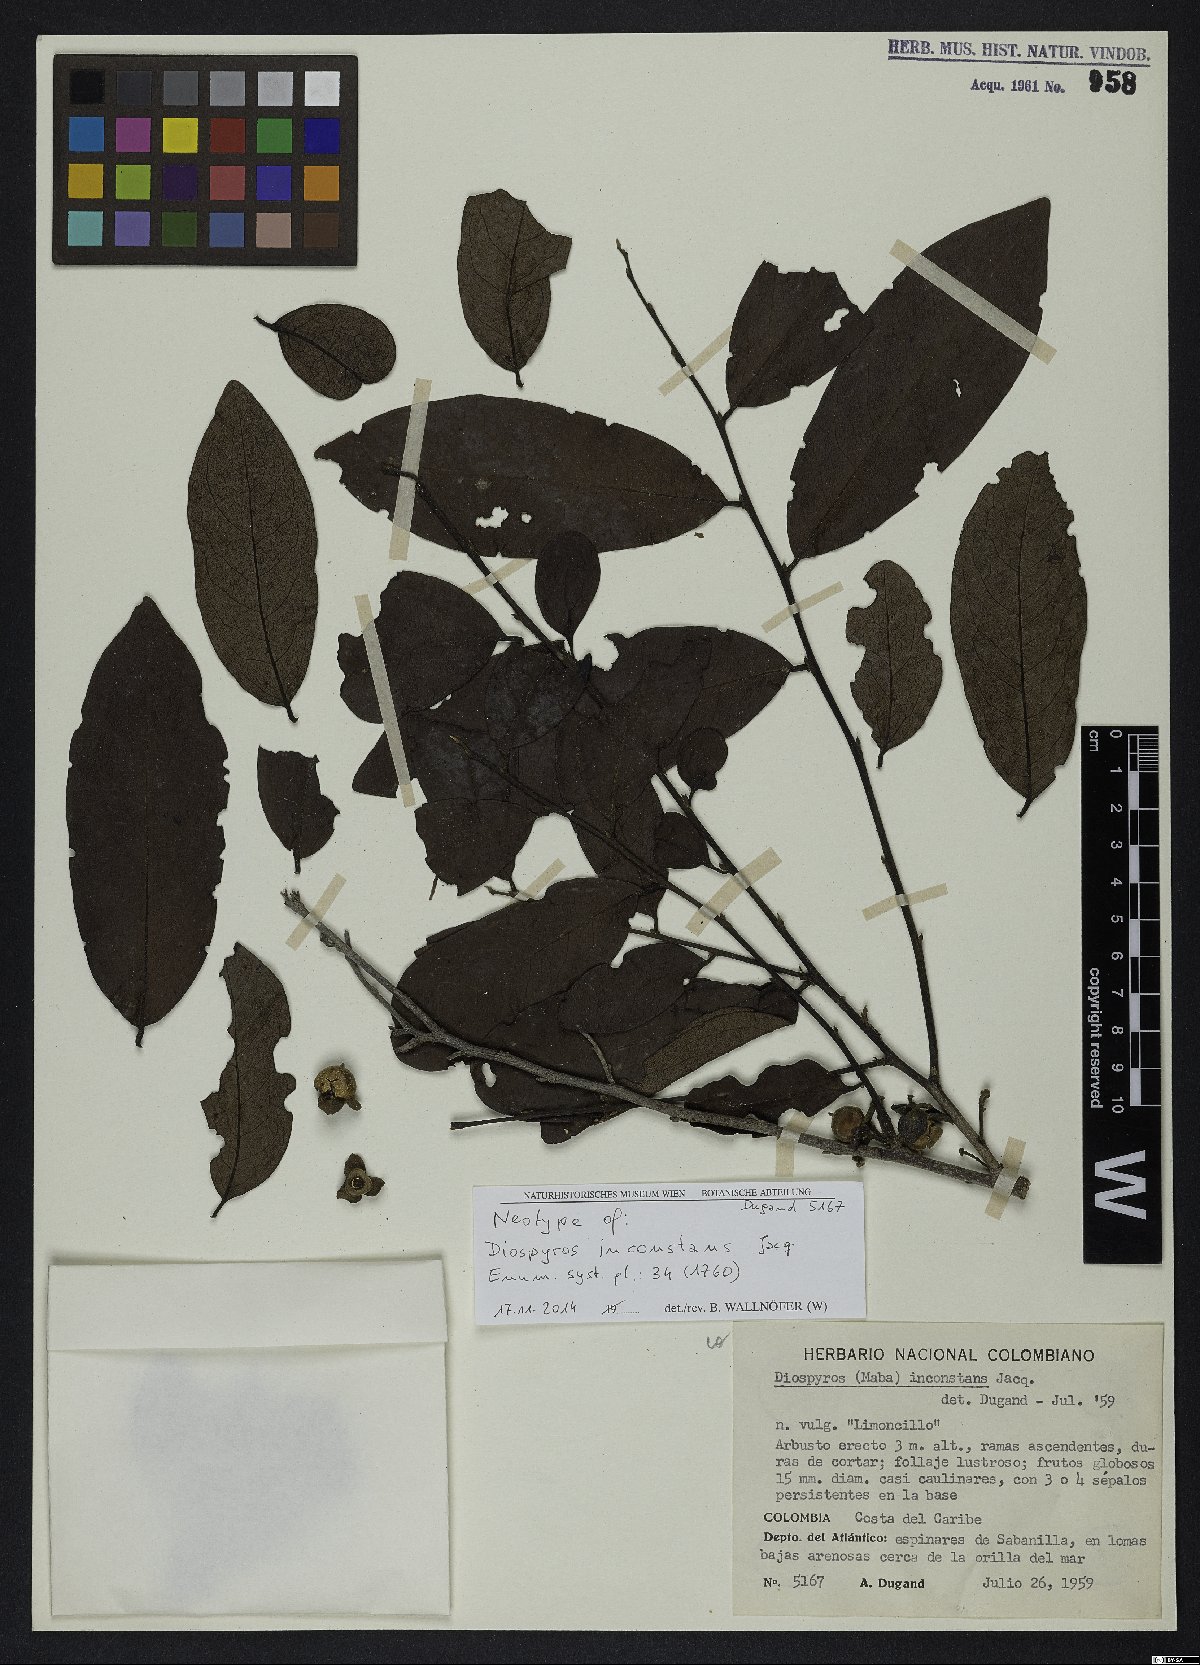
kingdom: Plantae
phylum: Tracheophyta
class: Magnoliopsida
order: Ericales
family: Ebenaceae
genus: Diospyros
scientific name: Diospyros inconstans
